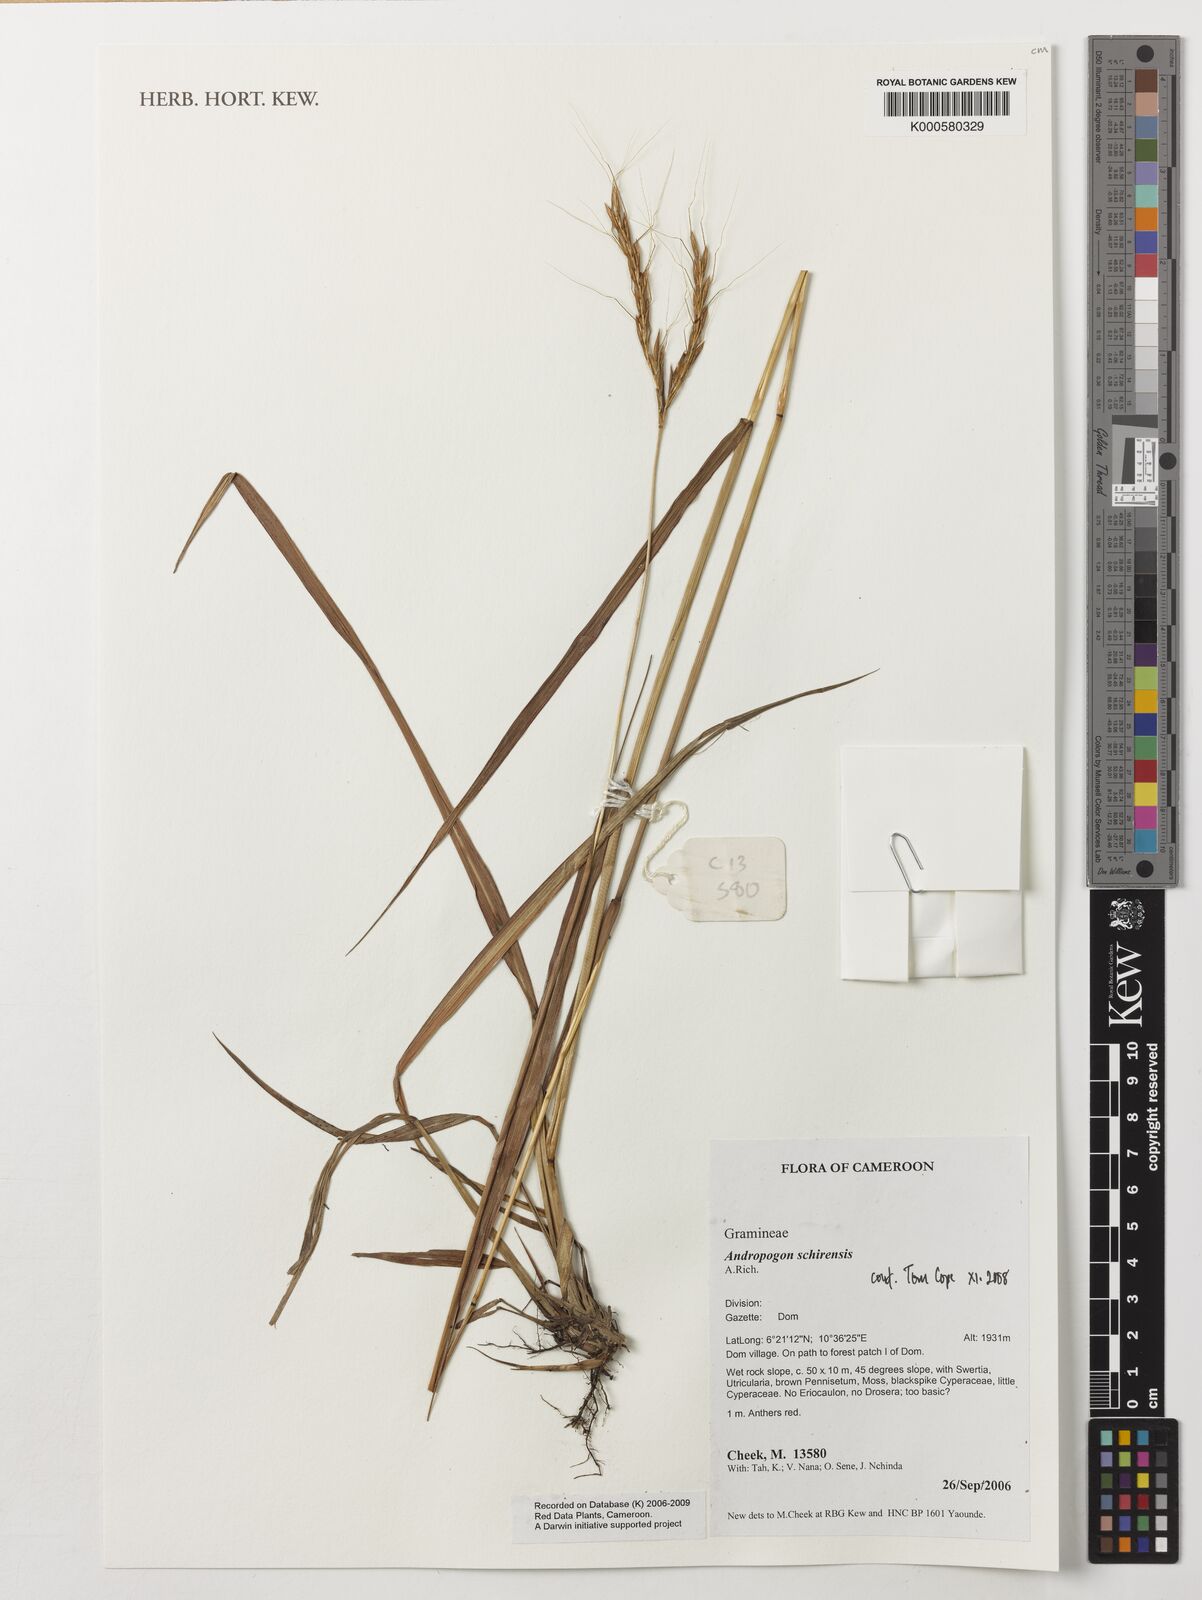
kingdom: Plantae
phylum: Tracheophyta
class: Liliopsida
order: Poales
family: Poaceae
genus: Andropogon
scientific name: Andropogon schirensis
